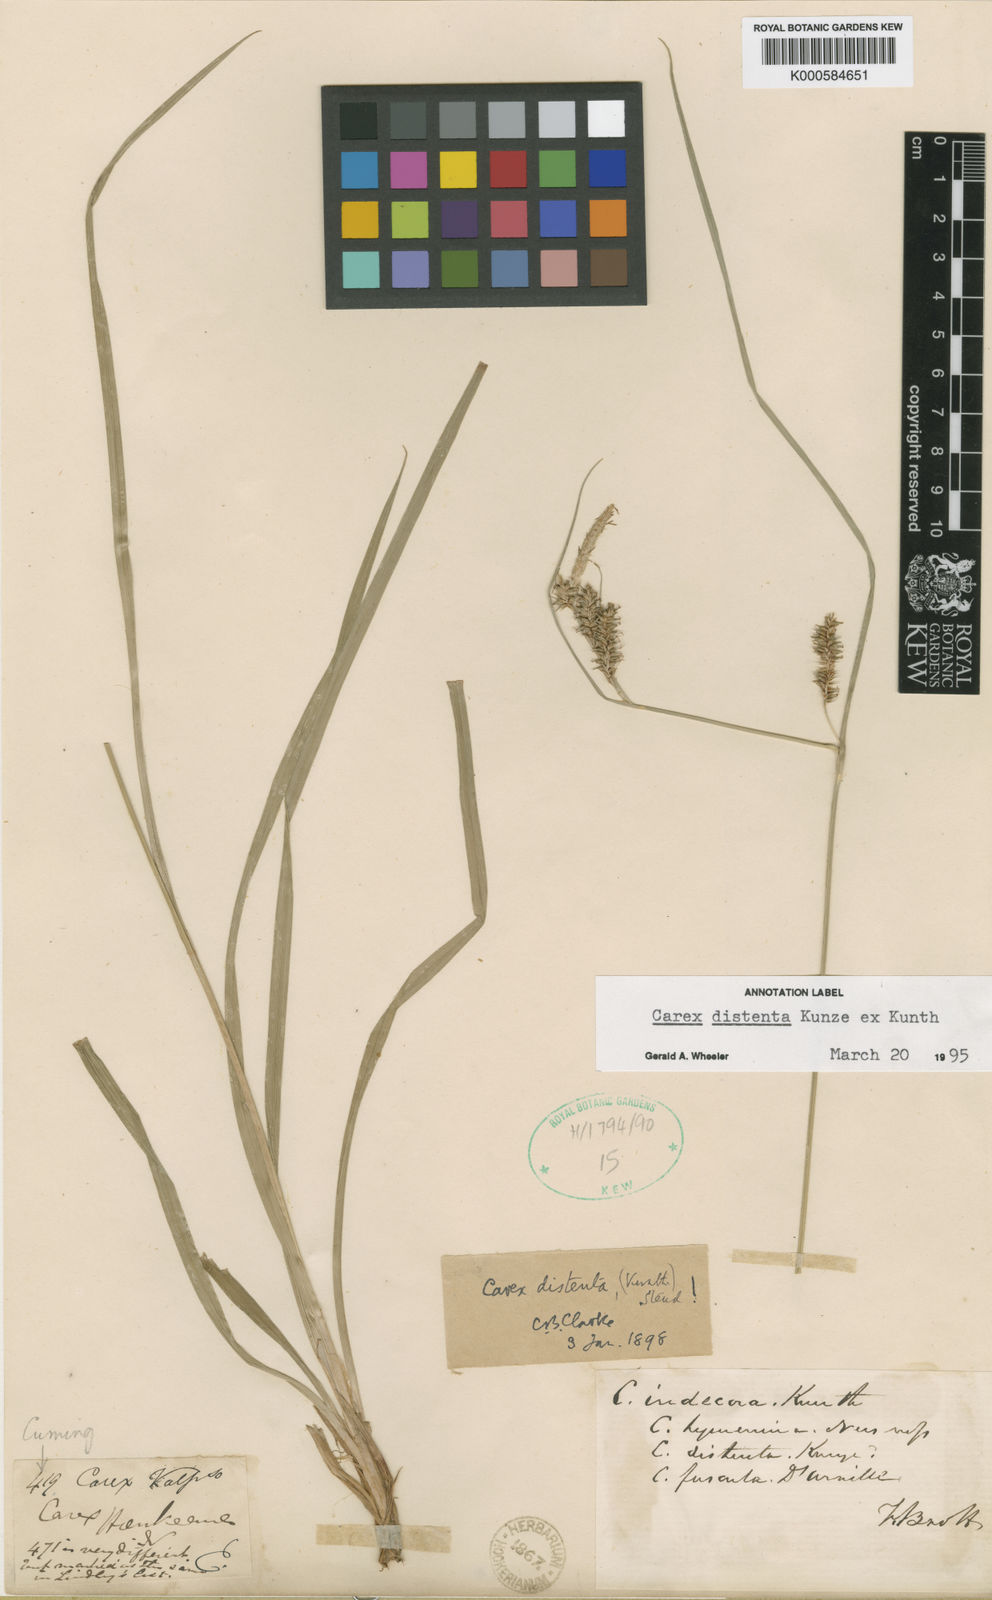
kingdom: Plantae
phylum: Tracheophyta
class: Liliopsida
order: Poales
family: Cyperaceae
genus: Carex
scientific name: Carex fuscula
